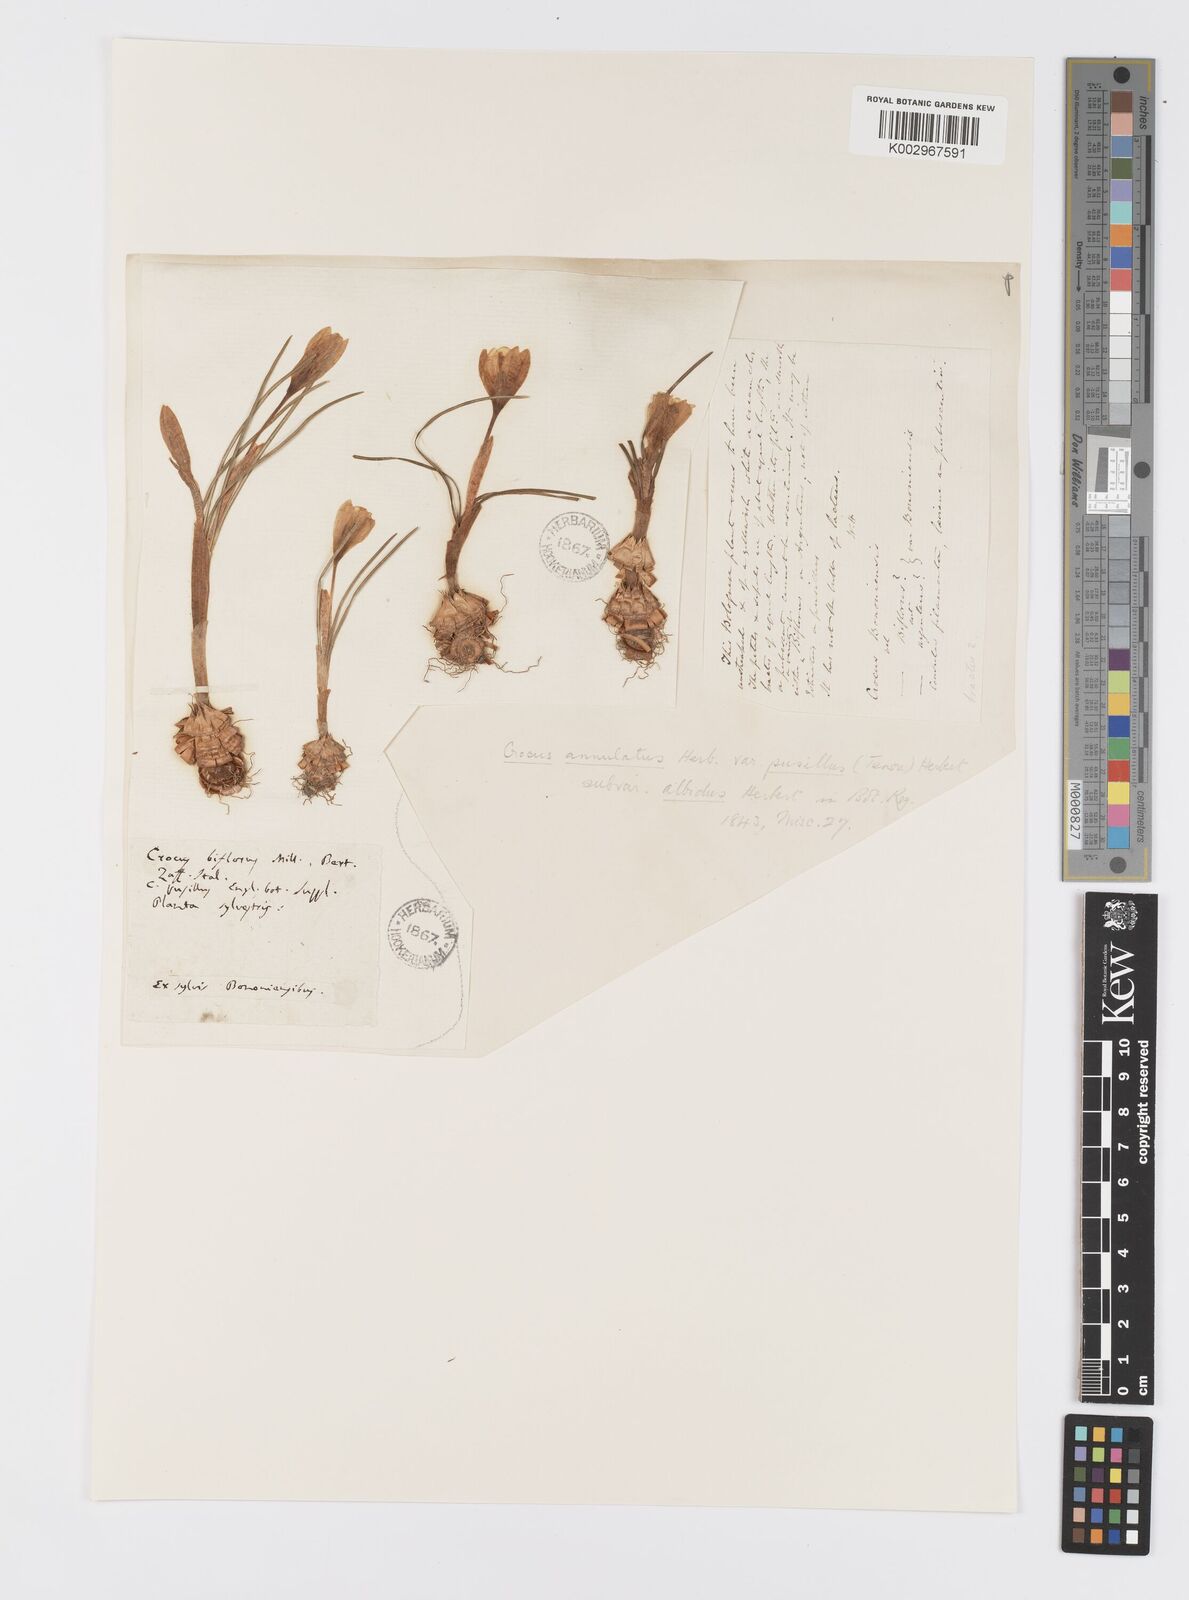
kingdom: Plantae
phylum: Tracheophyta
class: Liliopsida
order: Asparagales
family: Iridaceae
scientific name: Iridaceae
